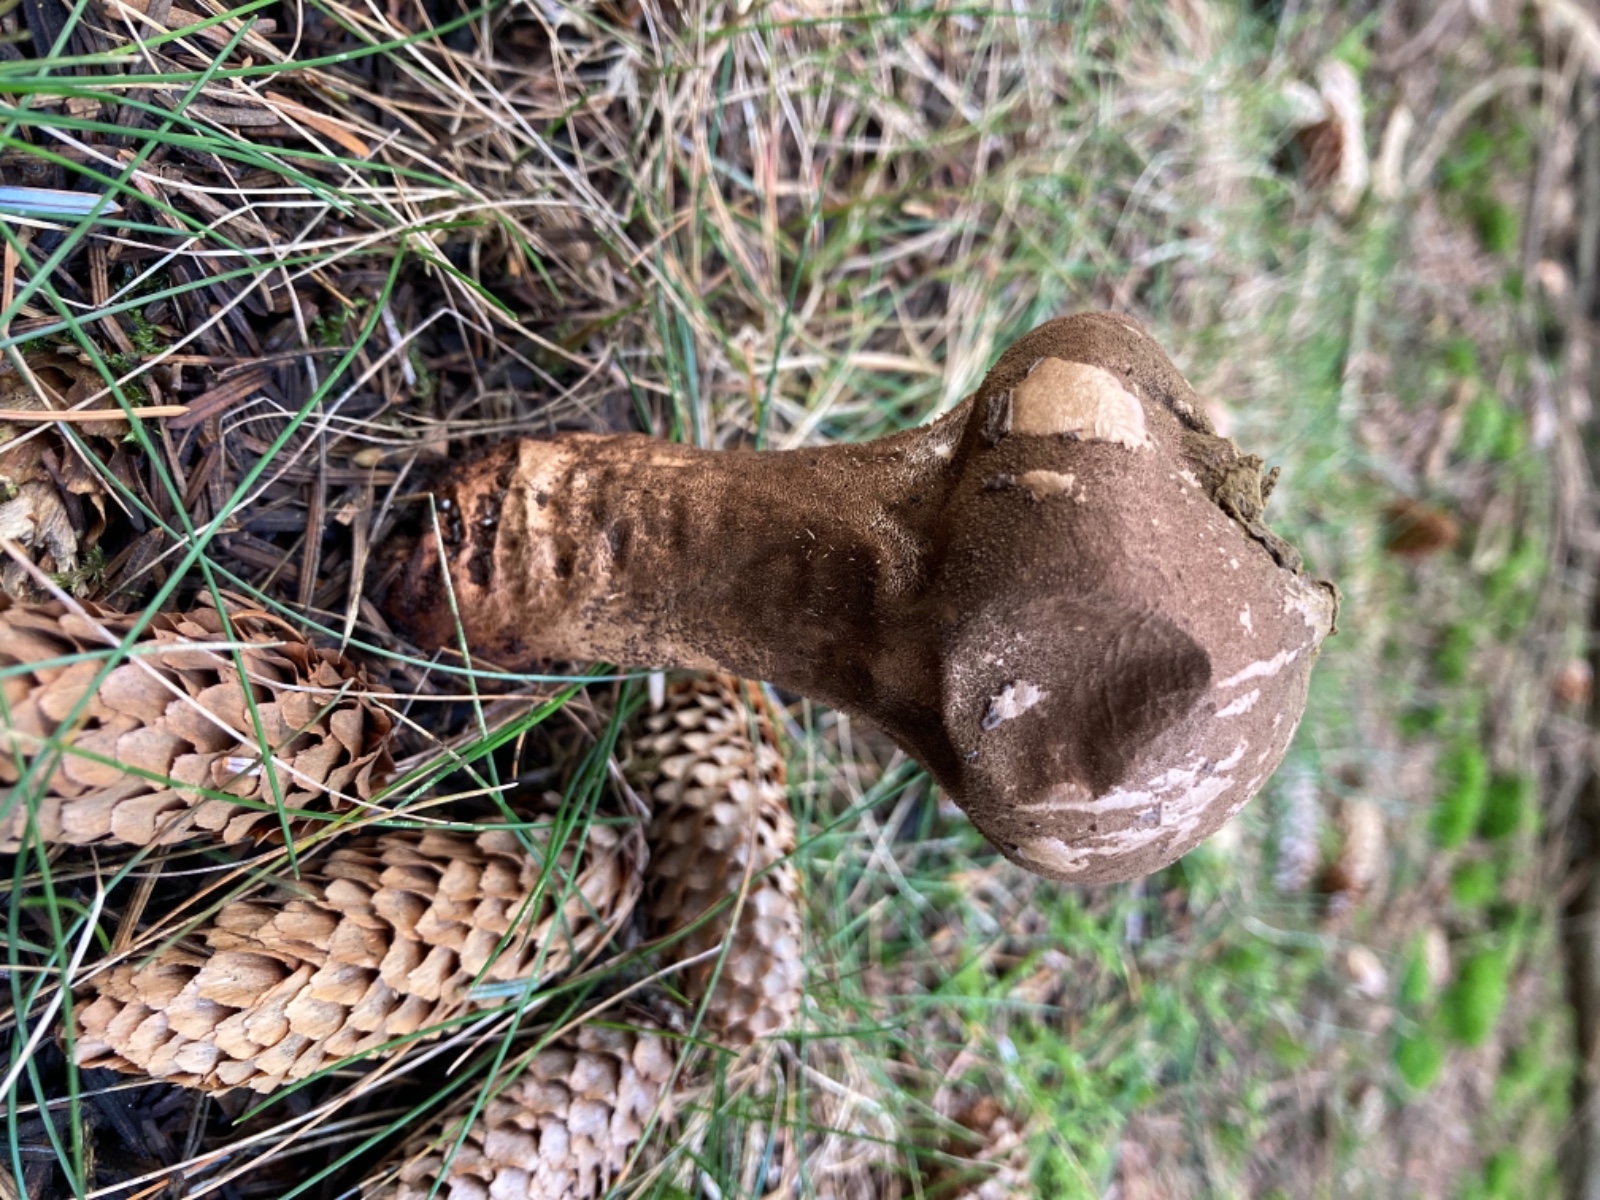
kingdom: Fungi
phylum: Basidiomycota
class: Agaricomycetes
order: Agaricales
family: Lycoperdaceae
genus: Lycoperdon
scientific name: Lycoperdon perlatum
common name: krystal-støvbold
